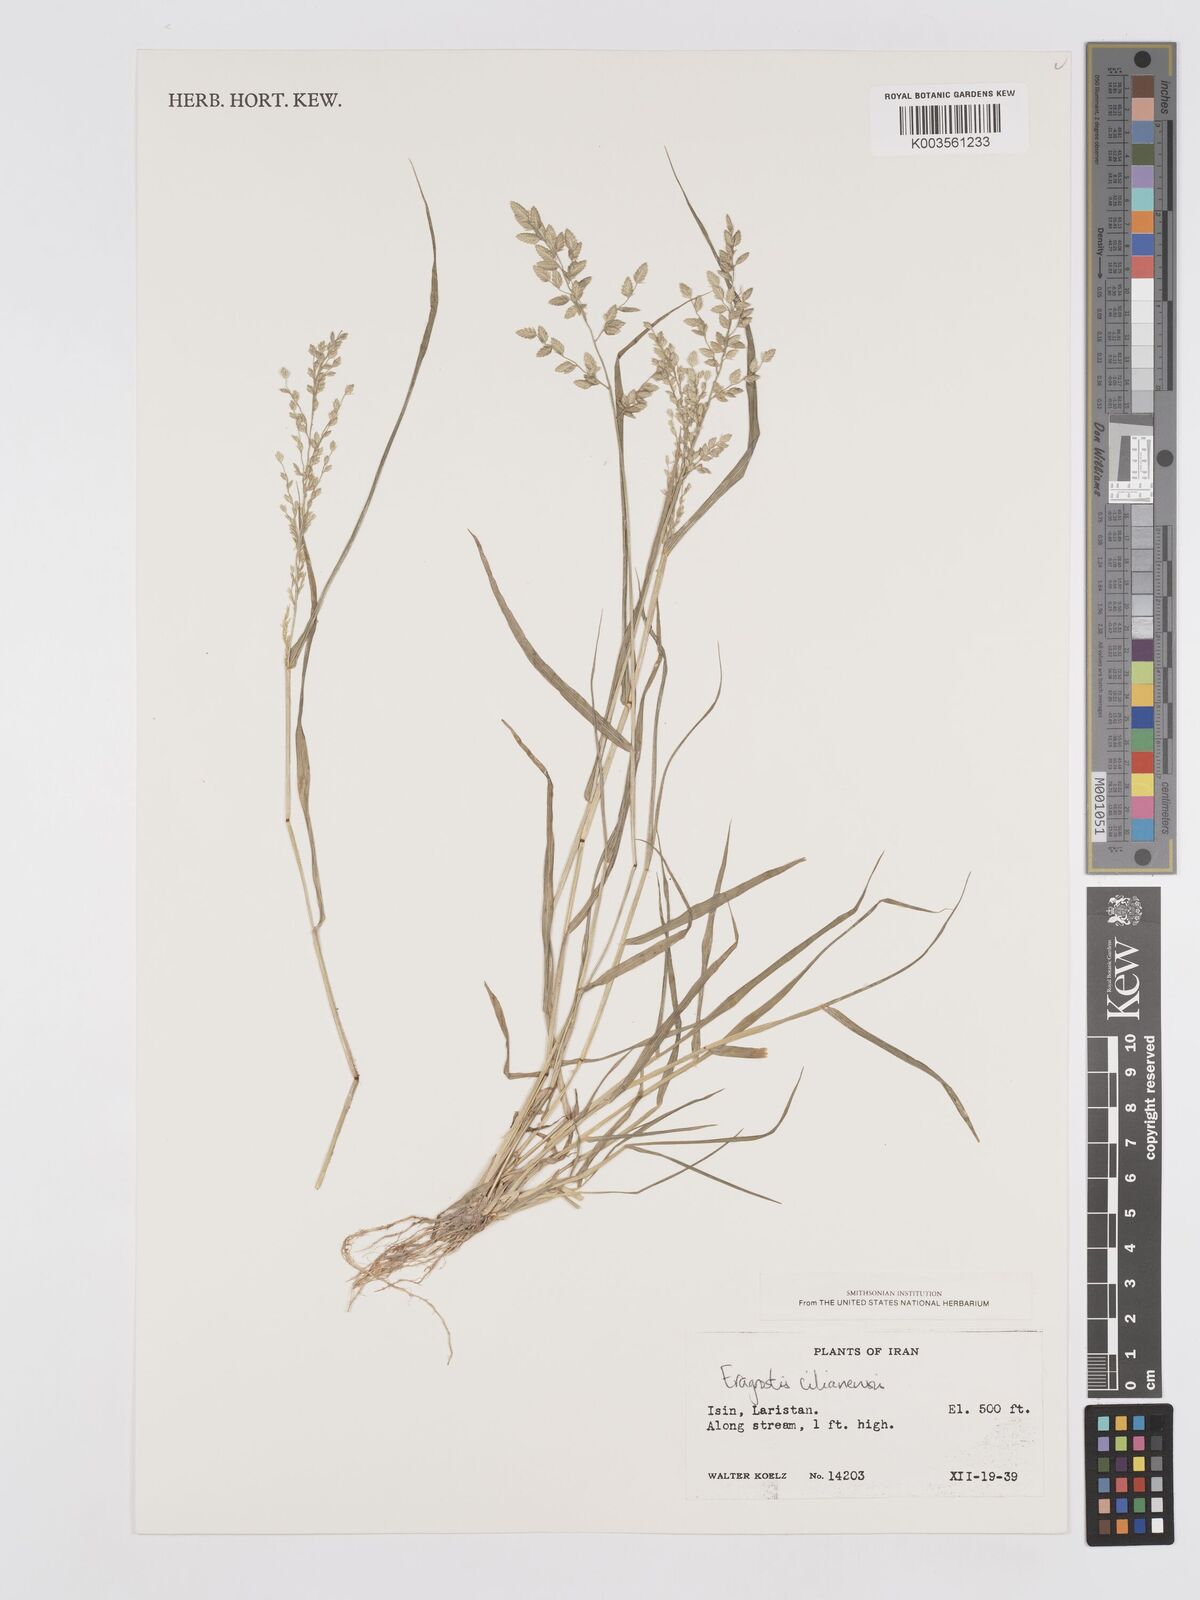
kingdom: Plantae
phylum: Tracheophyta
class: Liliopsida
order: Poales
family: Poaceae
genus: Eragrostis
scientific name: Eragrostis cilianensis
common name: Stinkgrass
